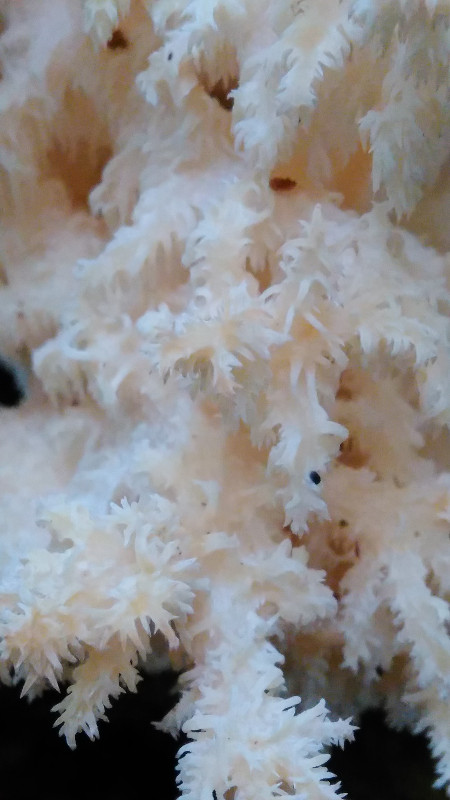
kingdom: Fungi
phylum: Basidiomycota
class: Agaricomycetes
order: Russulales
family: Hericiaceae
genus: Hericium
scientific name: Hericium coralloides
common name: koralpigsvamp
